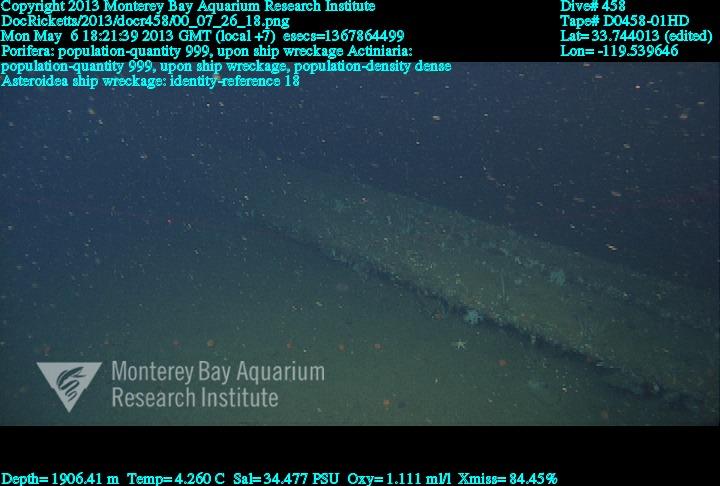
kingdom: Animalia
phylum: Porifera
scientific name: Porifera
